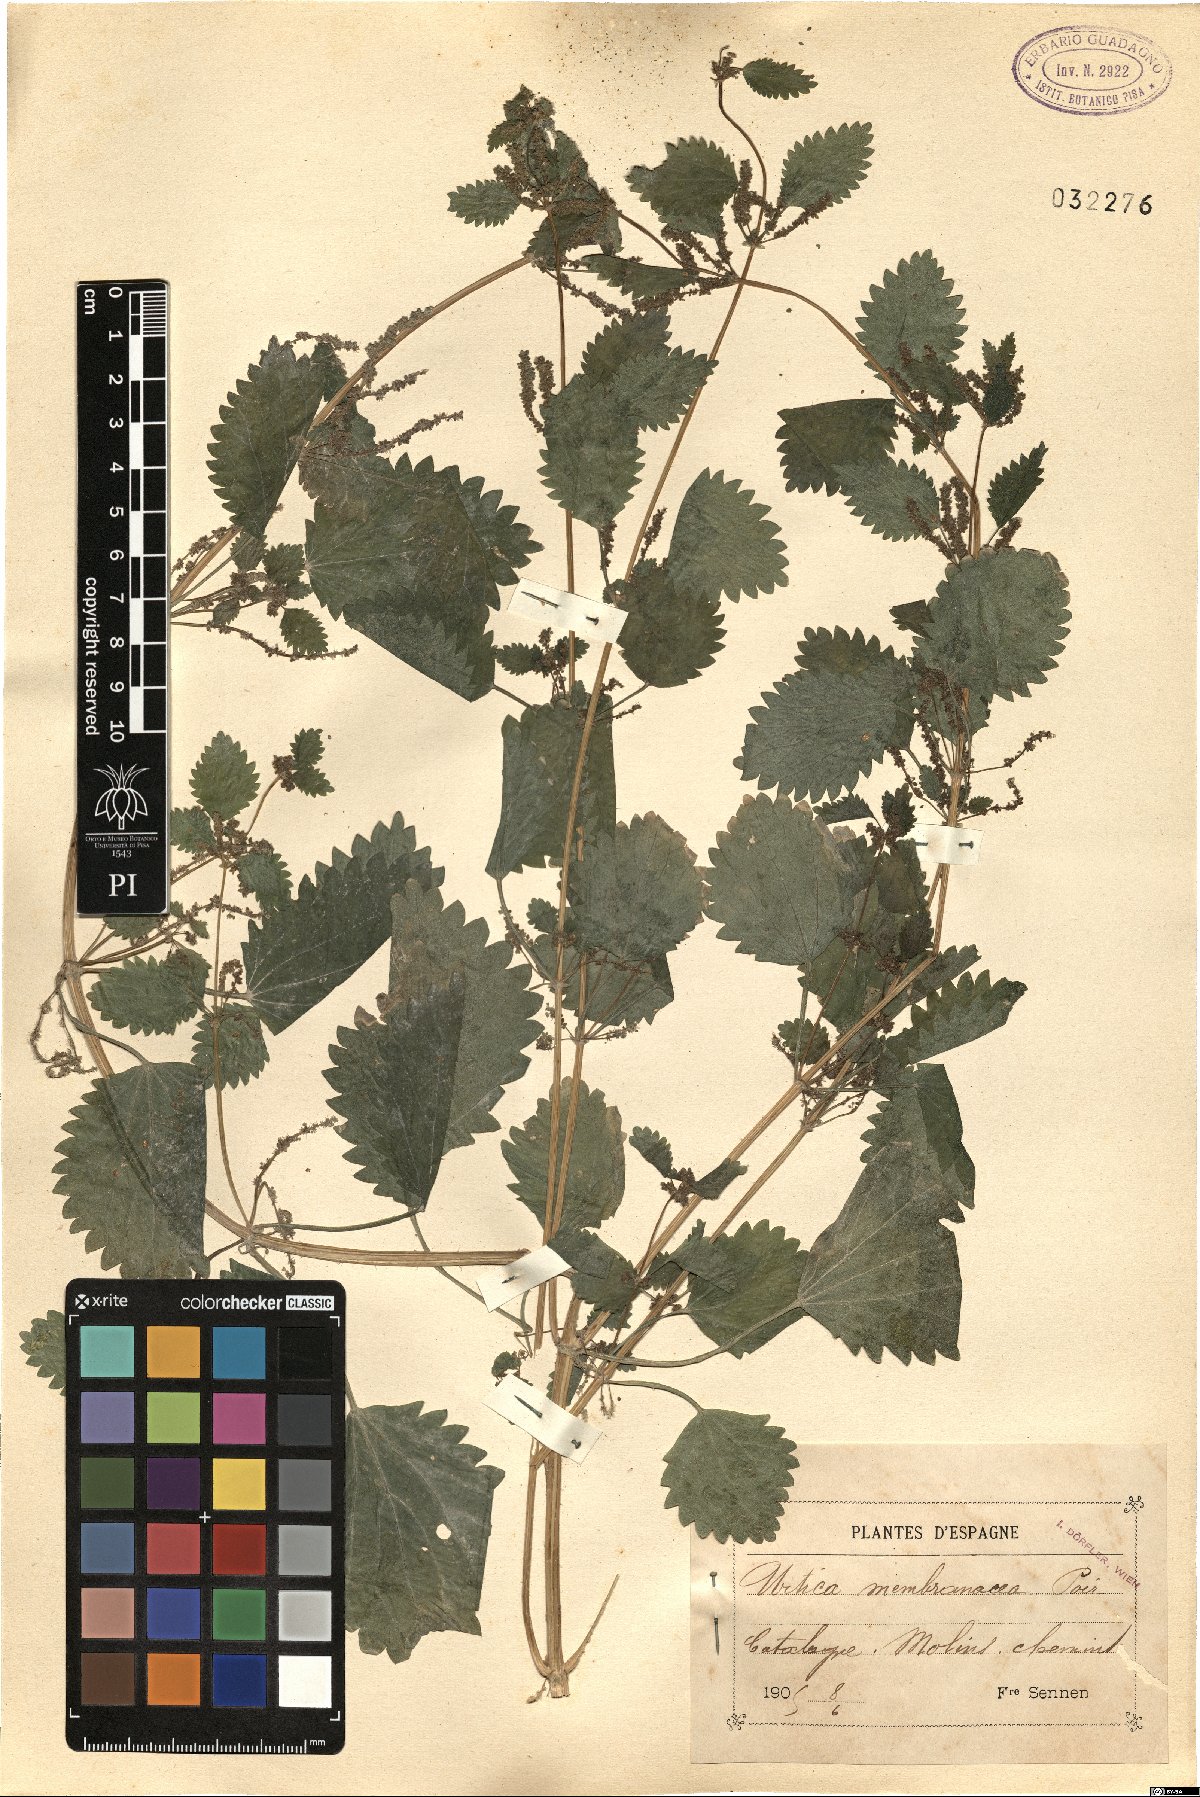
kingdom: Plantae
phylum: Tracheophyta
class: Magnoliopsida
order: Rosales
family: Urticaceae
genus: Urtica
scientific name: Urtica membranacea
